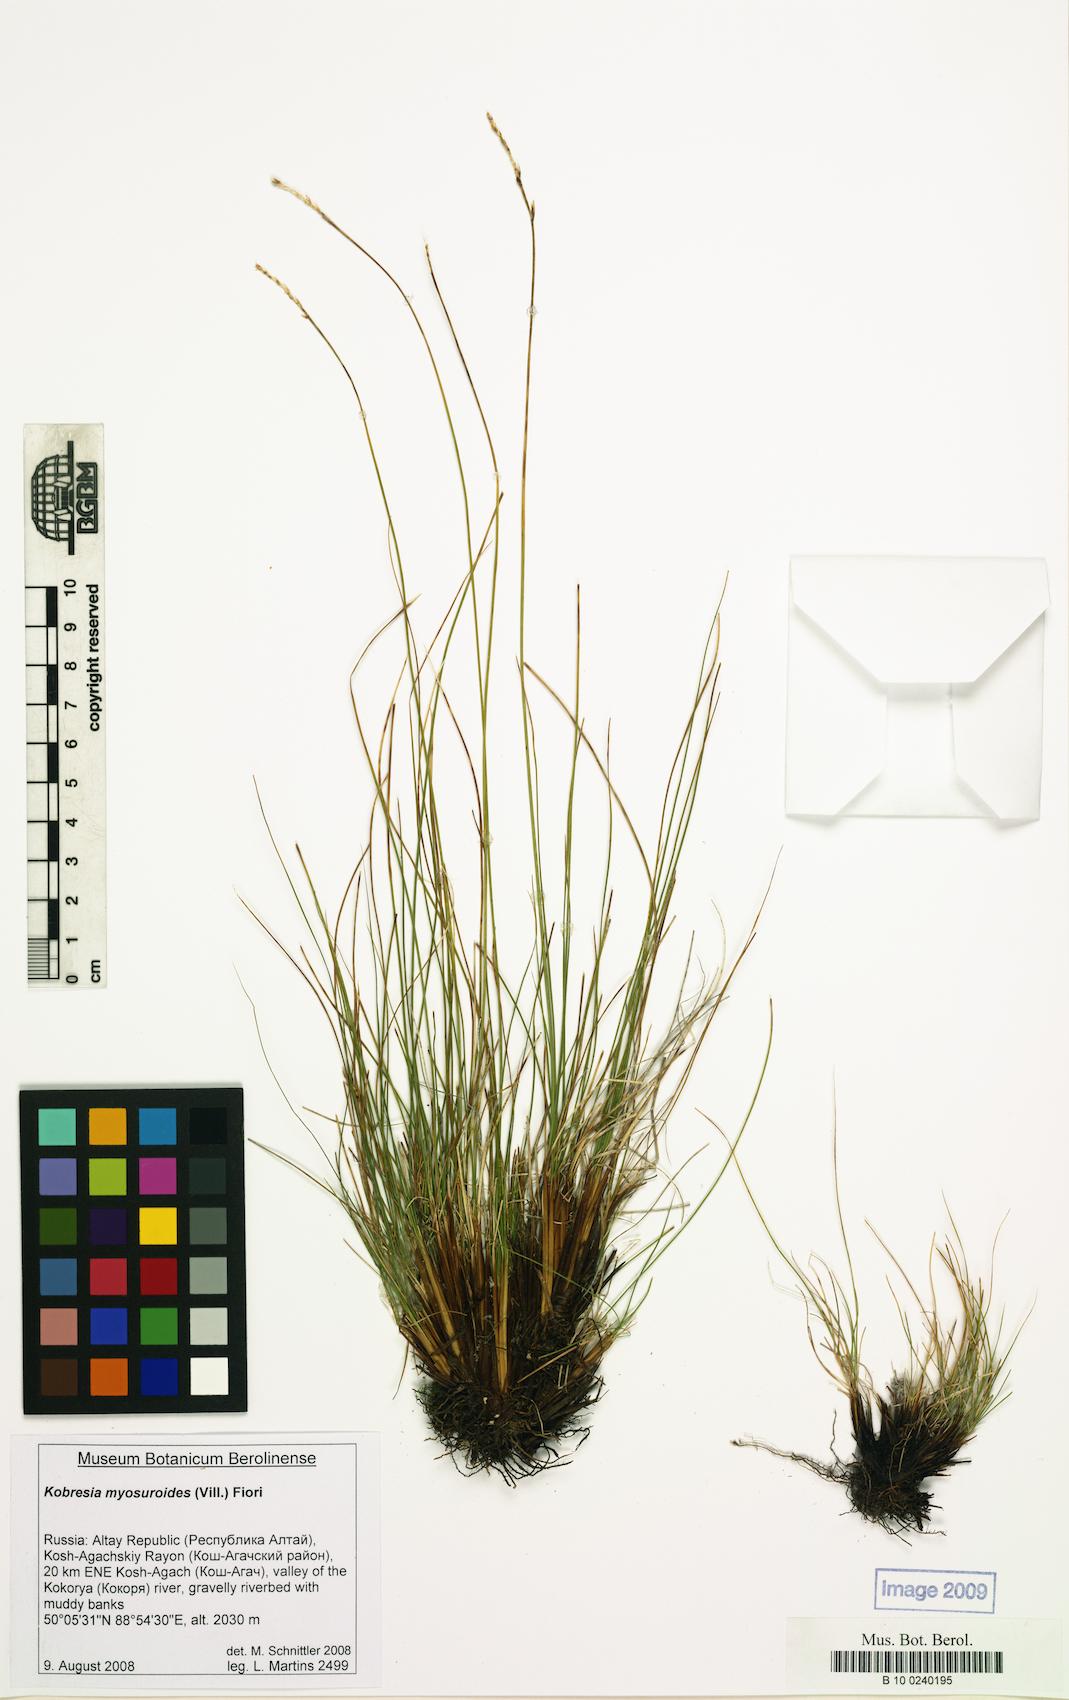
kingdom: Plantae
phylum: Tracheophyta
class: Liliopsida
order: Poales
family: Cyperaceae
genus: Carex
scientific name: Carex myosuroides
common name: Bellard's bog sedge
